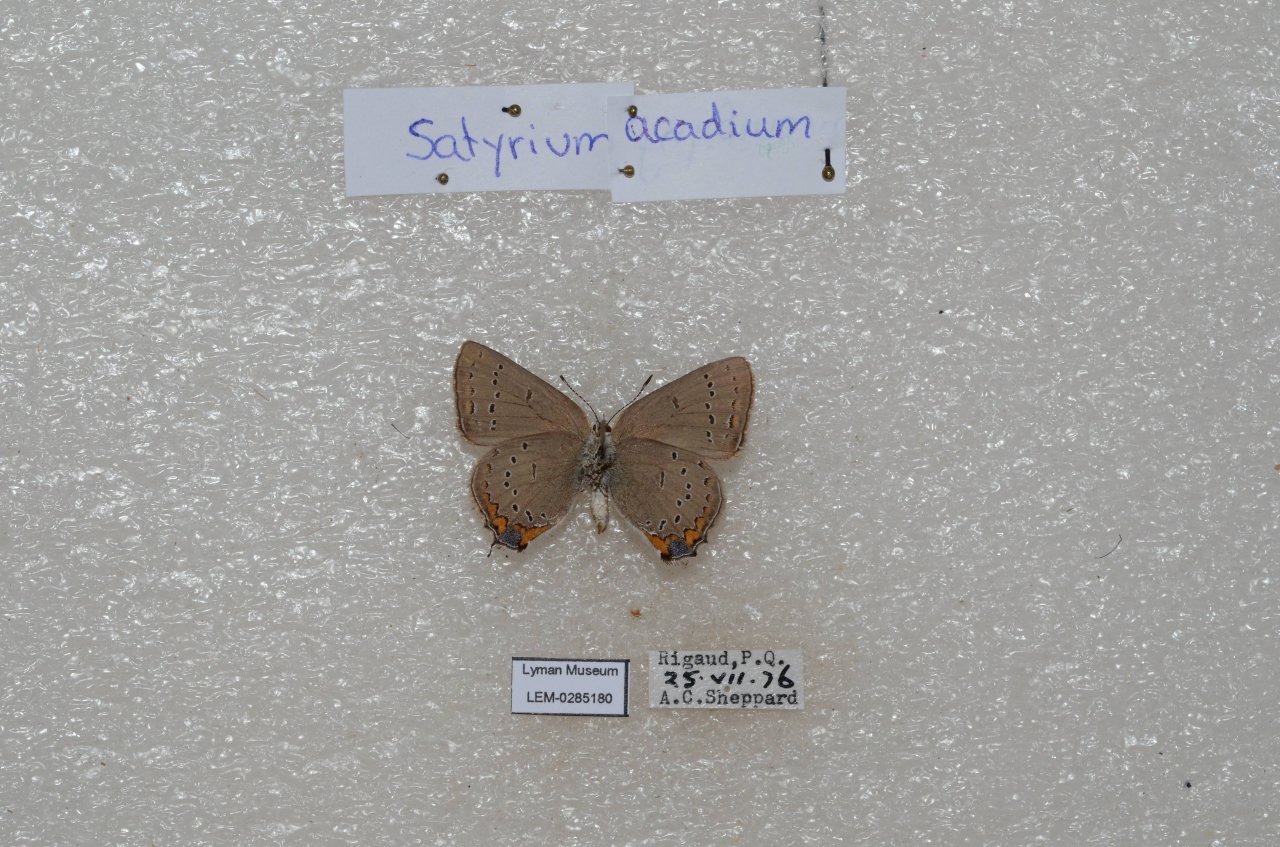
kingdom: Animalia
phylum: Arthropoda
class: Insecta
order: Lepidoptera
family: Lycaenidae
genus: Strymon
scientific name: Strymon acadica
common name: Acadian Hairstreak
